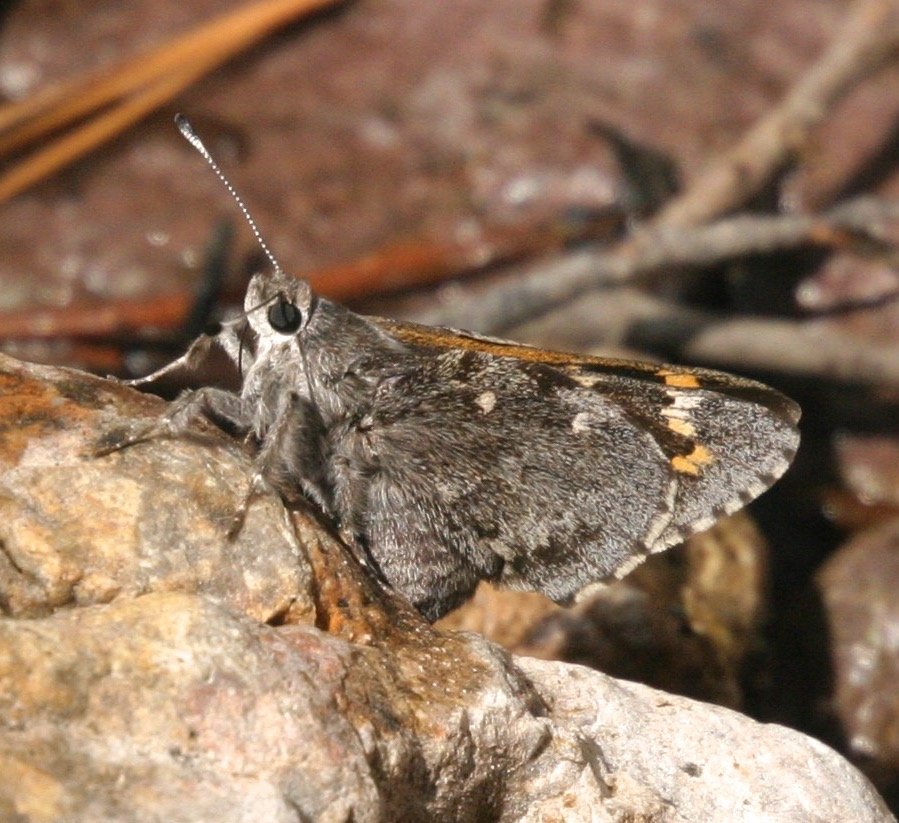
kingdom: Animalia
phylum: Arthropoda
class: Insecta
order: Lepidoptera
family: Hesperiidae
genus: Agathymus
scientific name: Agathymus aryxna
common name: Arizona Giant-Skipper
